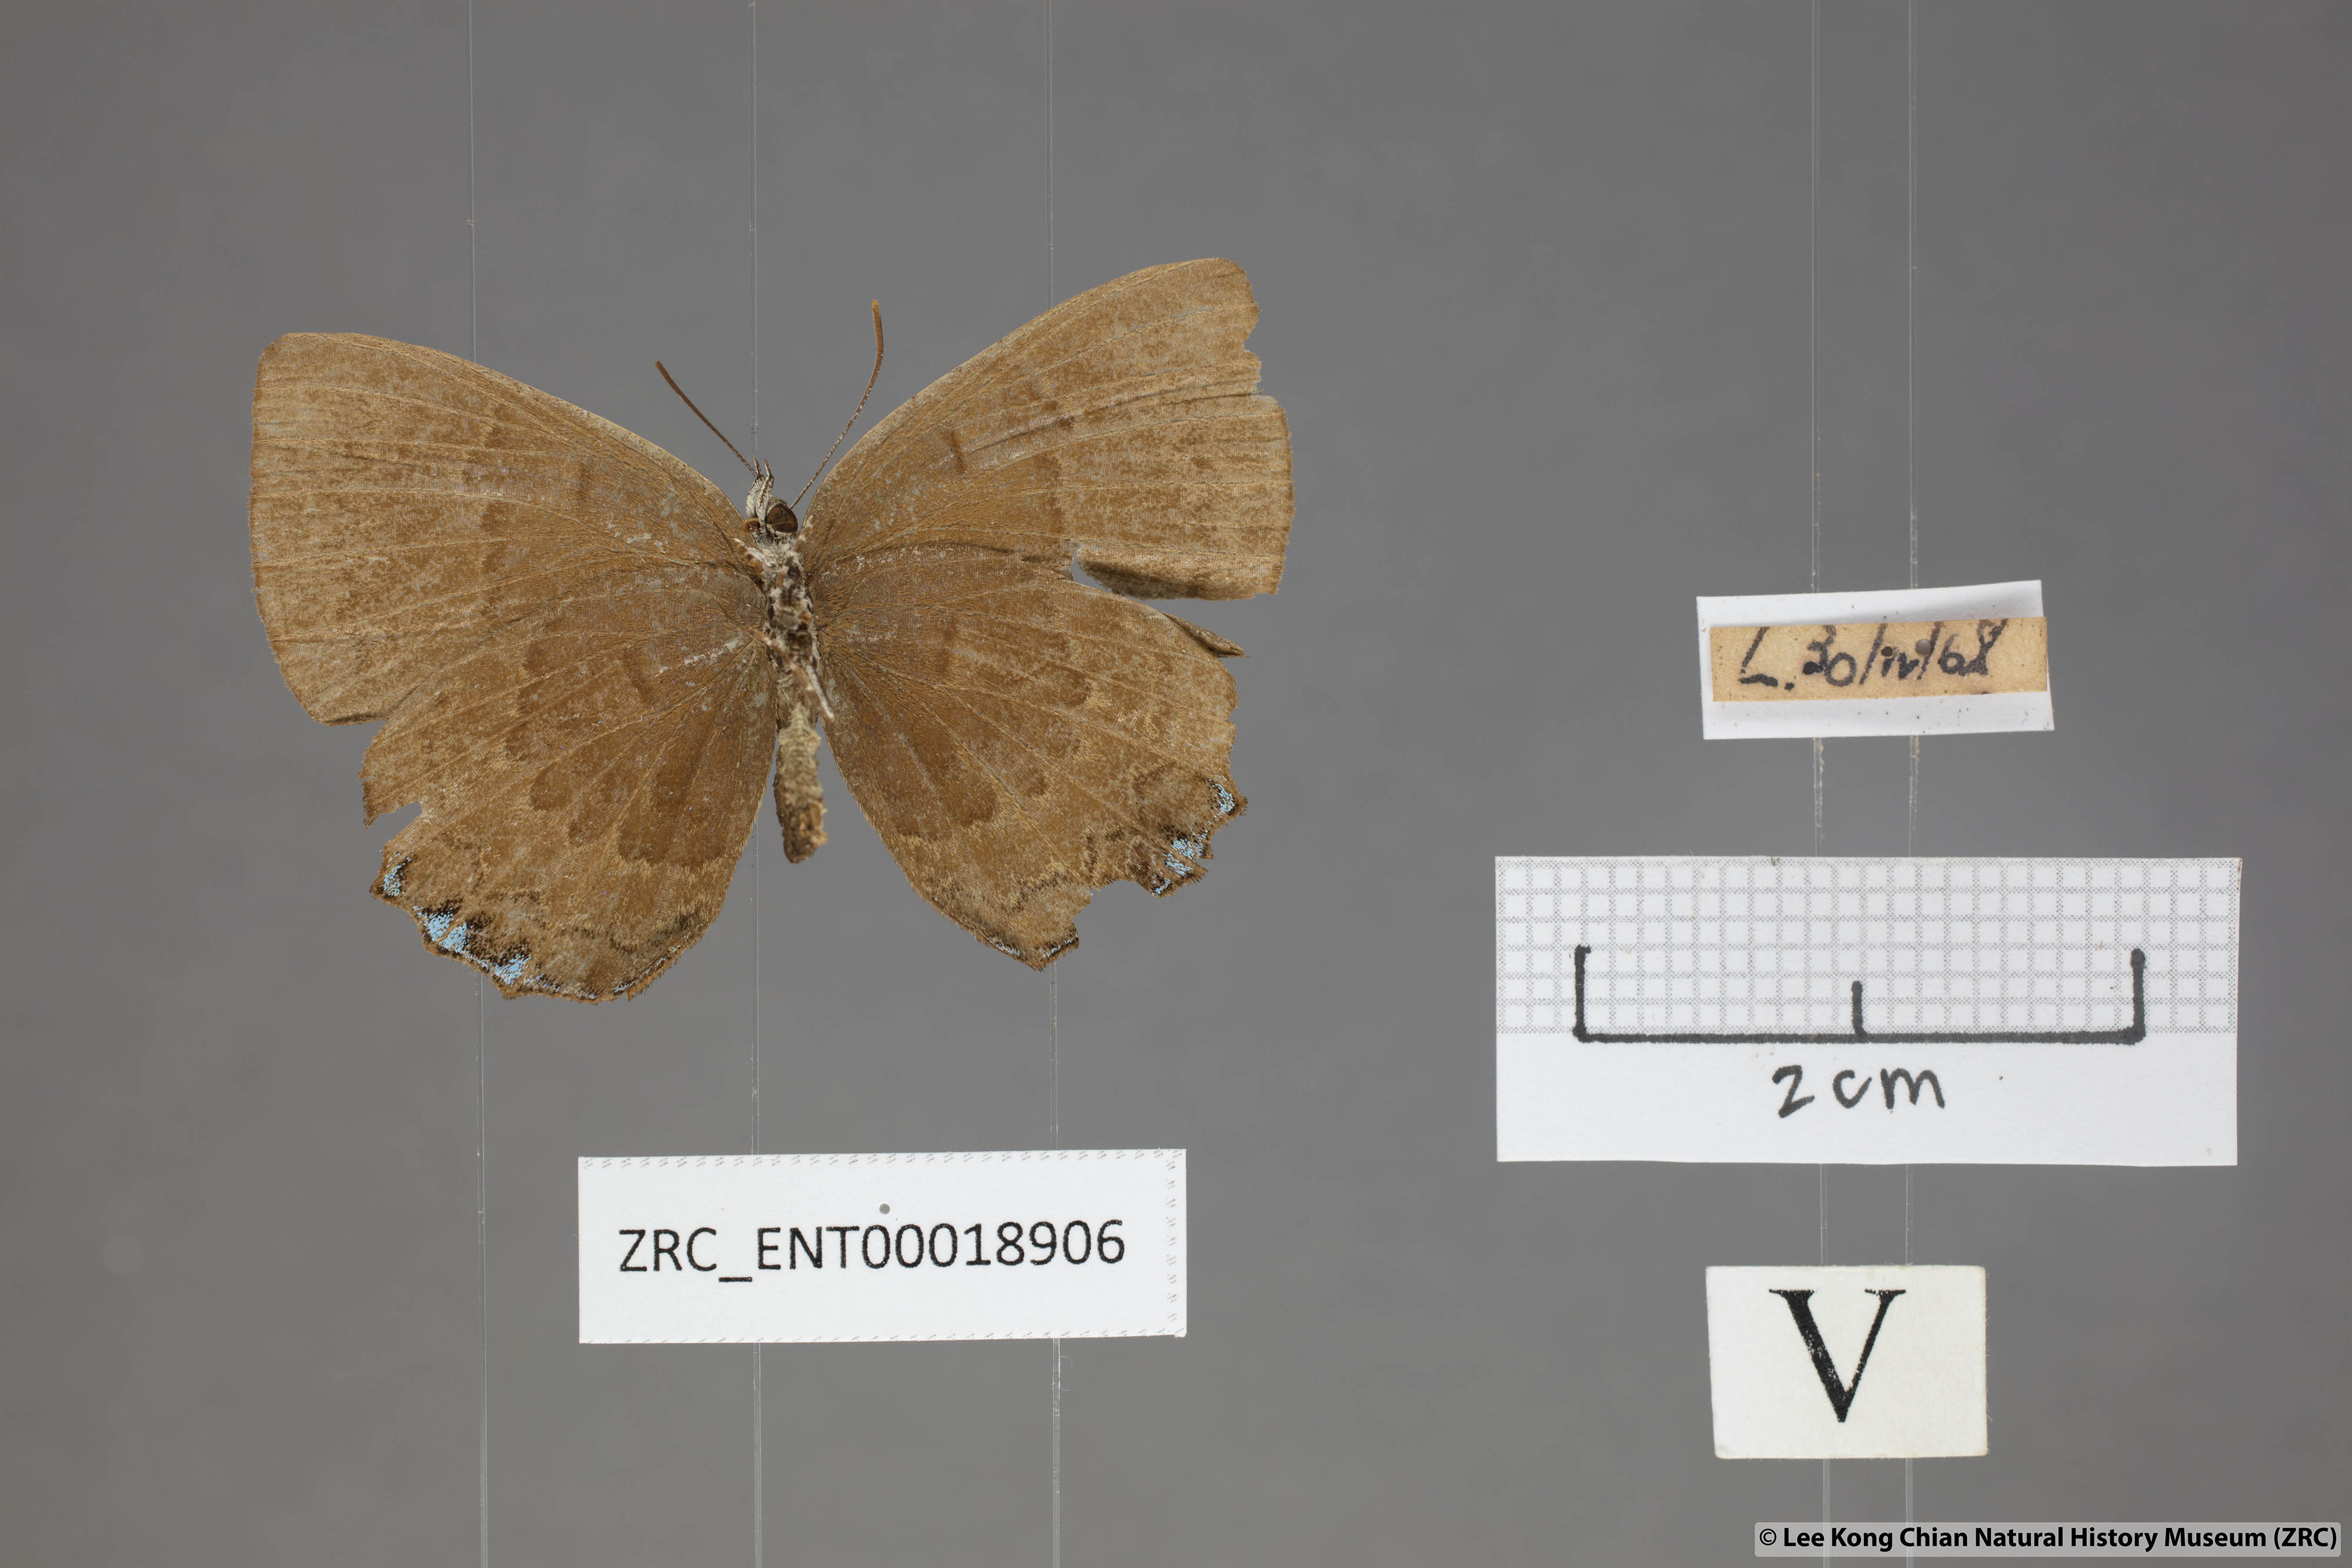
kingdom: Animalia
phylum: Arthropoda
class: Insecta
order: Lepidoptera
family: Lycaenidae
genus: Simiskina
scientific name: Simiskina
